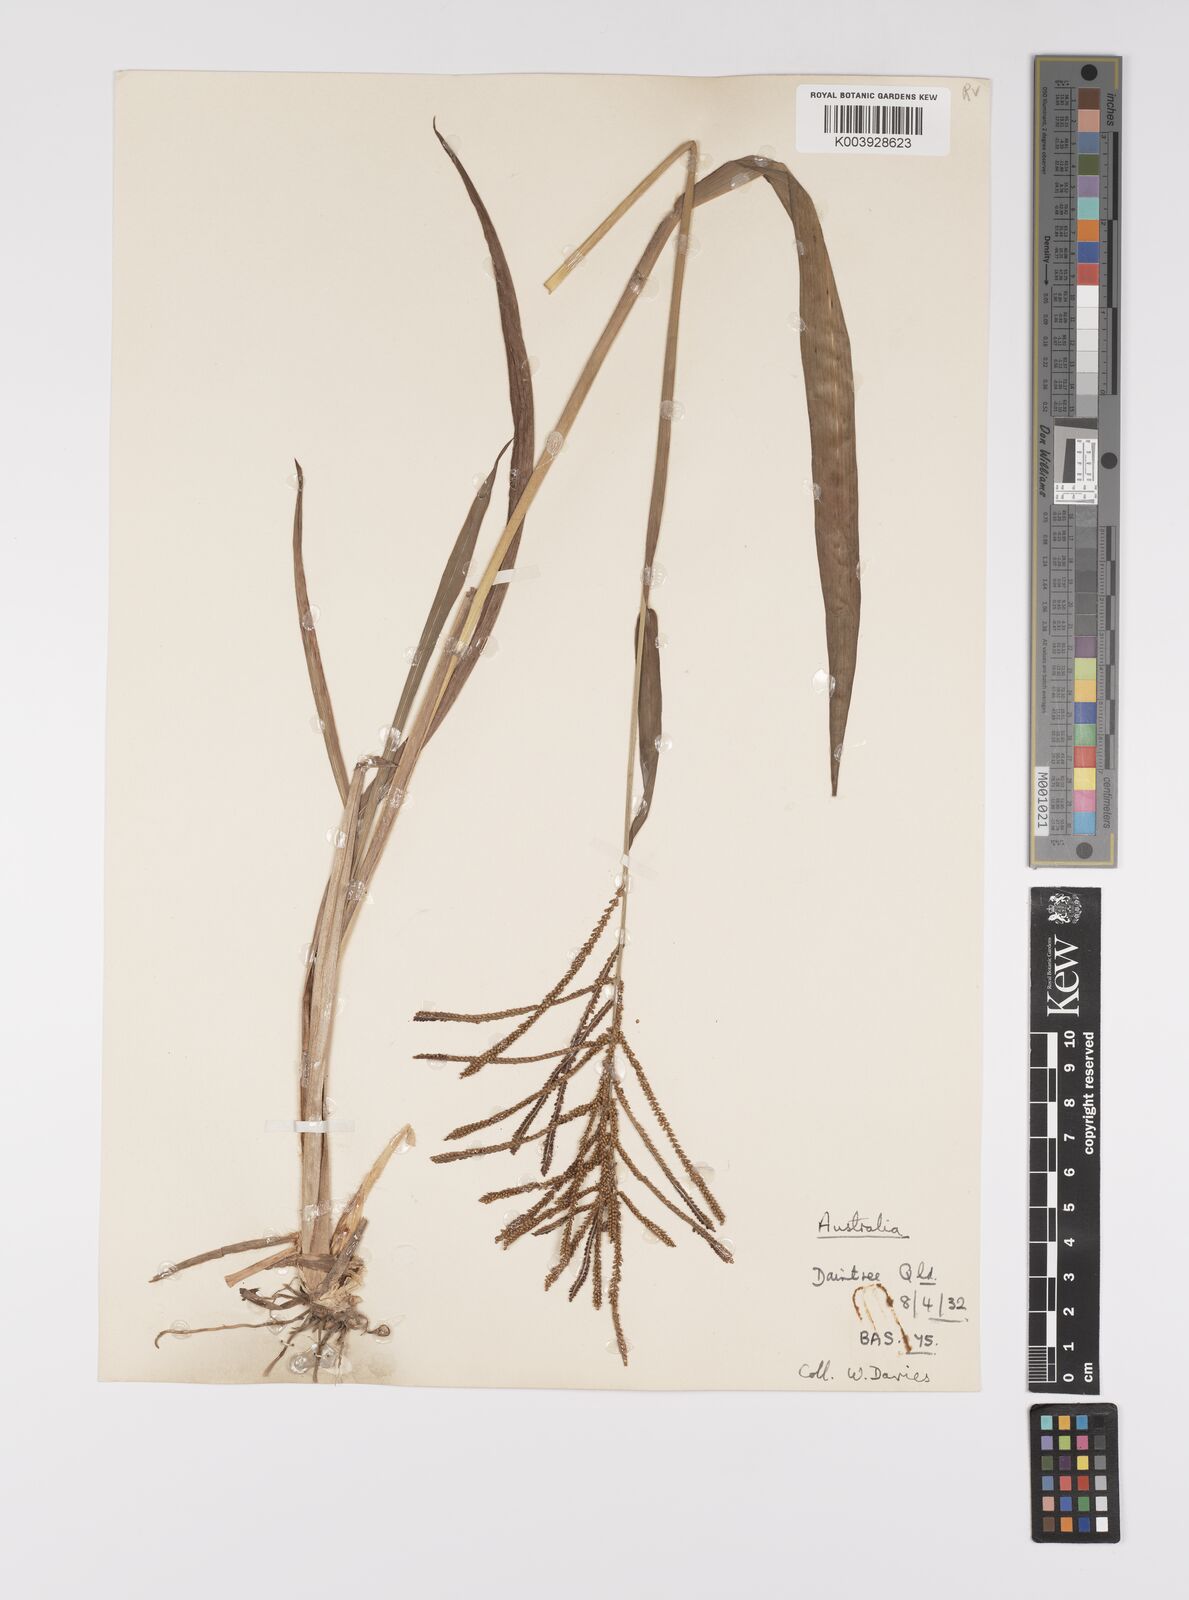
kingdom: Plantae
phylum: Tracheophyta
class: Liliopsida
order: Poales
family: Poaceae
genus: Paspalum
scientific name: Paspalum paniculatum
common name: Arrocillo
